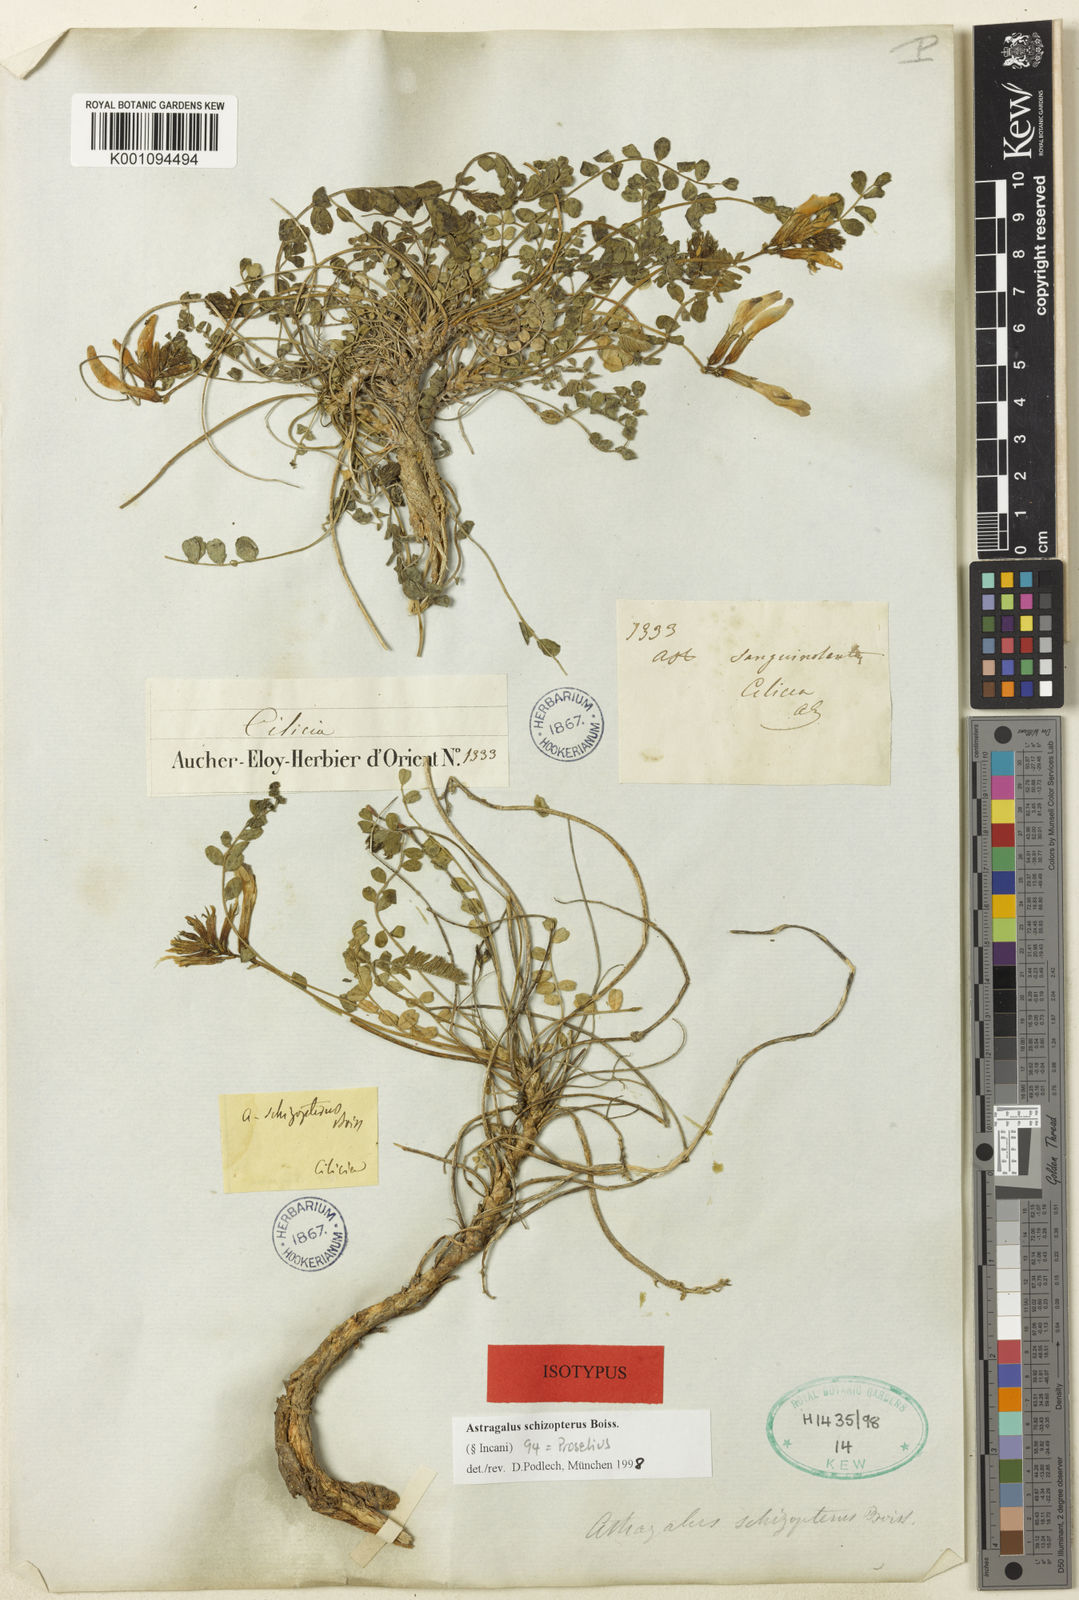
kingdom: Plantae
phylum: Tracheophyta
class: Magnoliopsida
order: Fabales
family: Fabaceae
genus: Astragalus
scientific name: Astragalus
